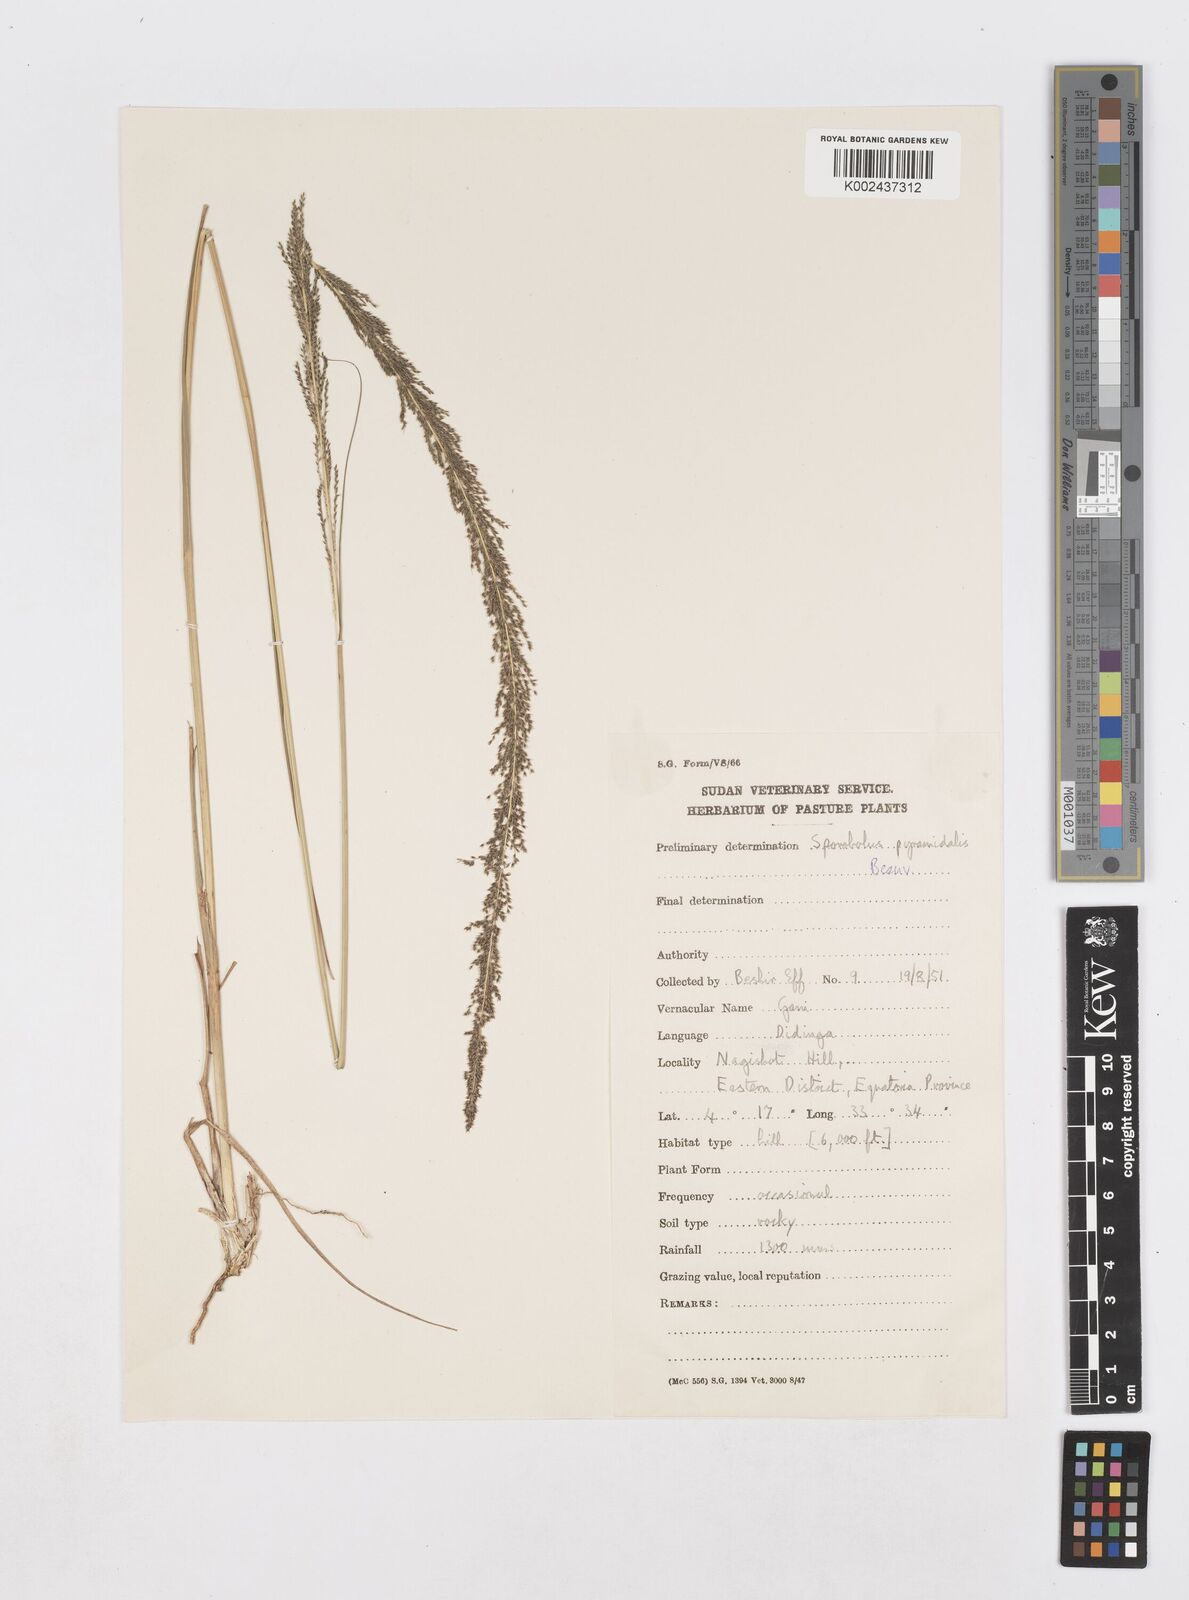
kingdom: Plantae
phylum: Tracheophyta
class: Liliopsida
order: Poales
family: Poaceae
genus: Sporobolus
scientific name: Sporobolus pyramidalis
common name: West indian dropseed
